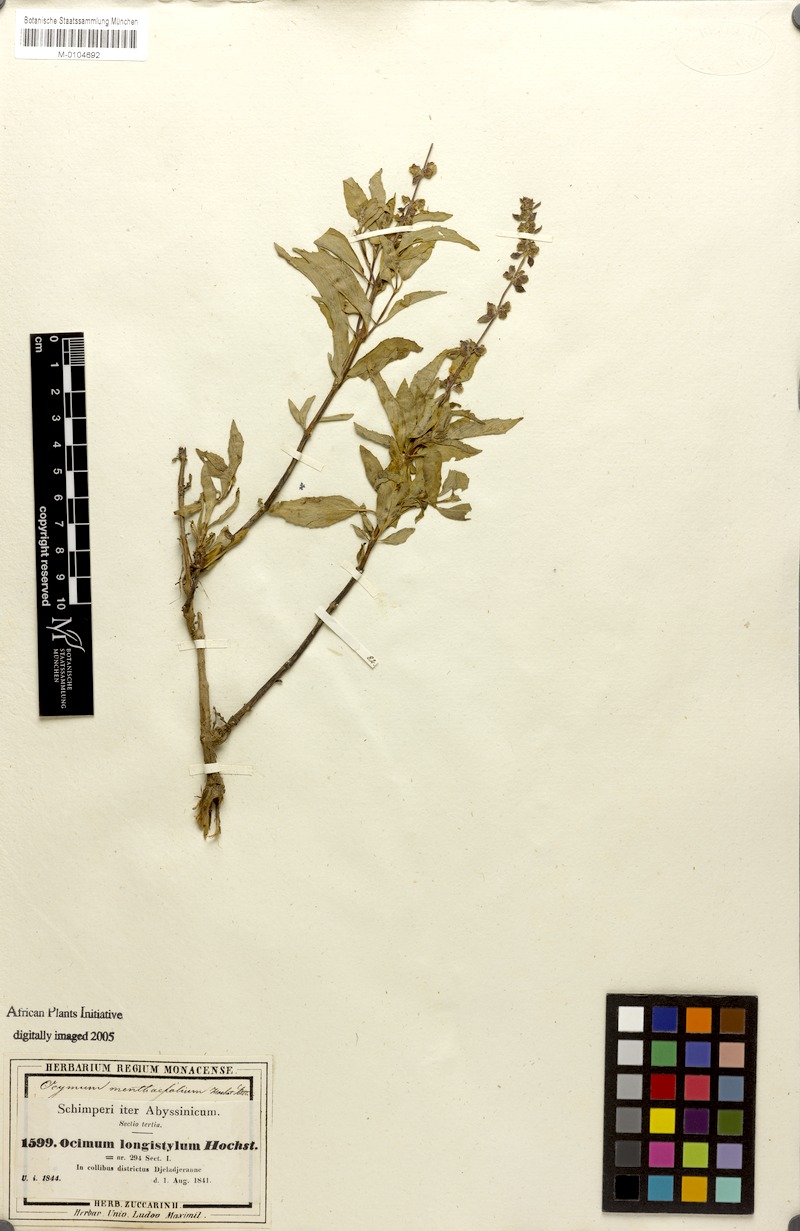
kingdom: Plantae
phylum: Tracheophyta
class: Magnoliopsida
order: Lamiales
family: Lamiaceae
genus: Ocimum
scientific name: Ocimum forskoelei
